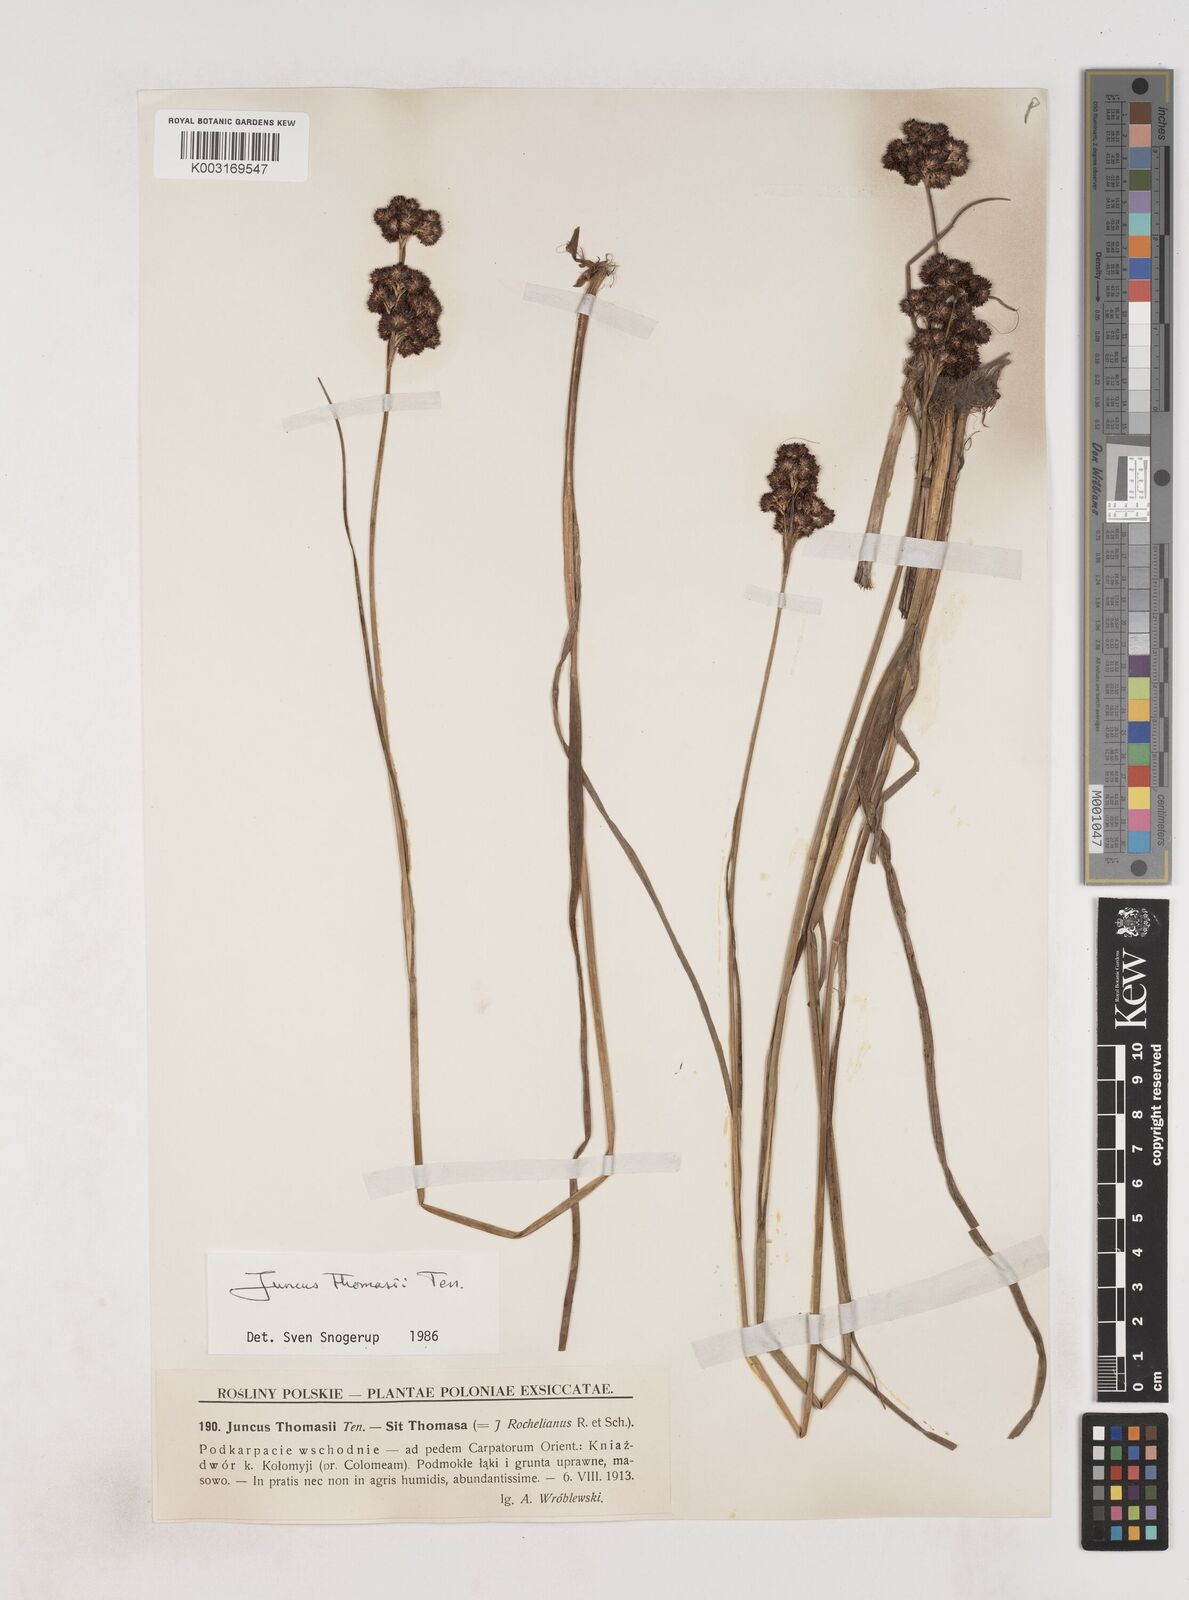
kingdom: Plantae
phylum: Tracheophyta
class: Liliopsida
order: Poales
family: Juncaceae
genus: Juncus
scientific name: Juncus thomasii
